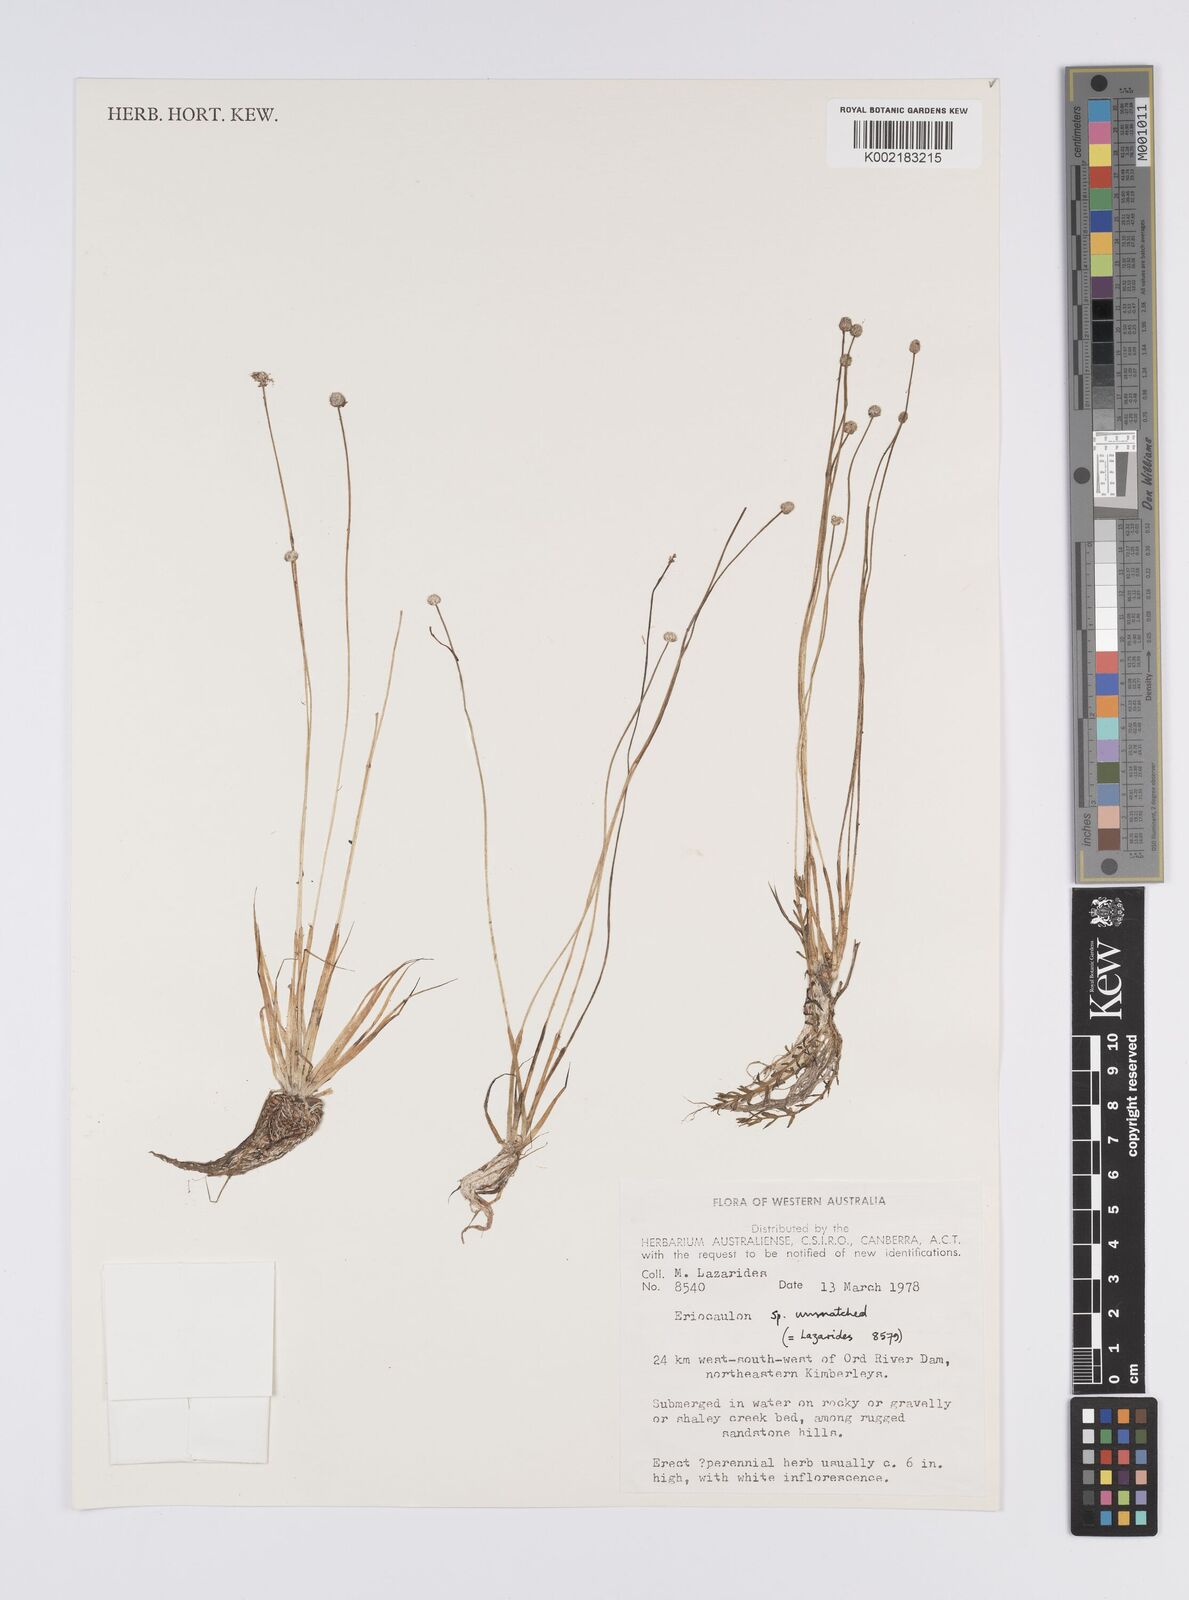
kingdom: Plantae
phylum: Tracheophyta
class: Liliopsida
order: Poales
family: Eriocaulaceae
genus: Eriocaulon
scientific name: Eriocaulon cinereum
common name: Ashy pipewort
